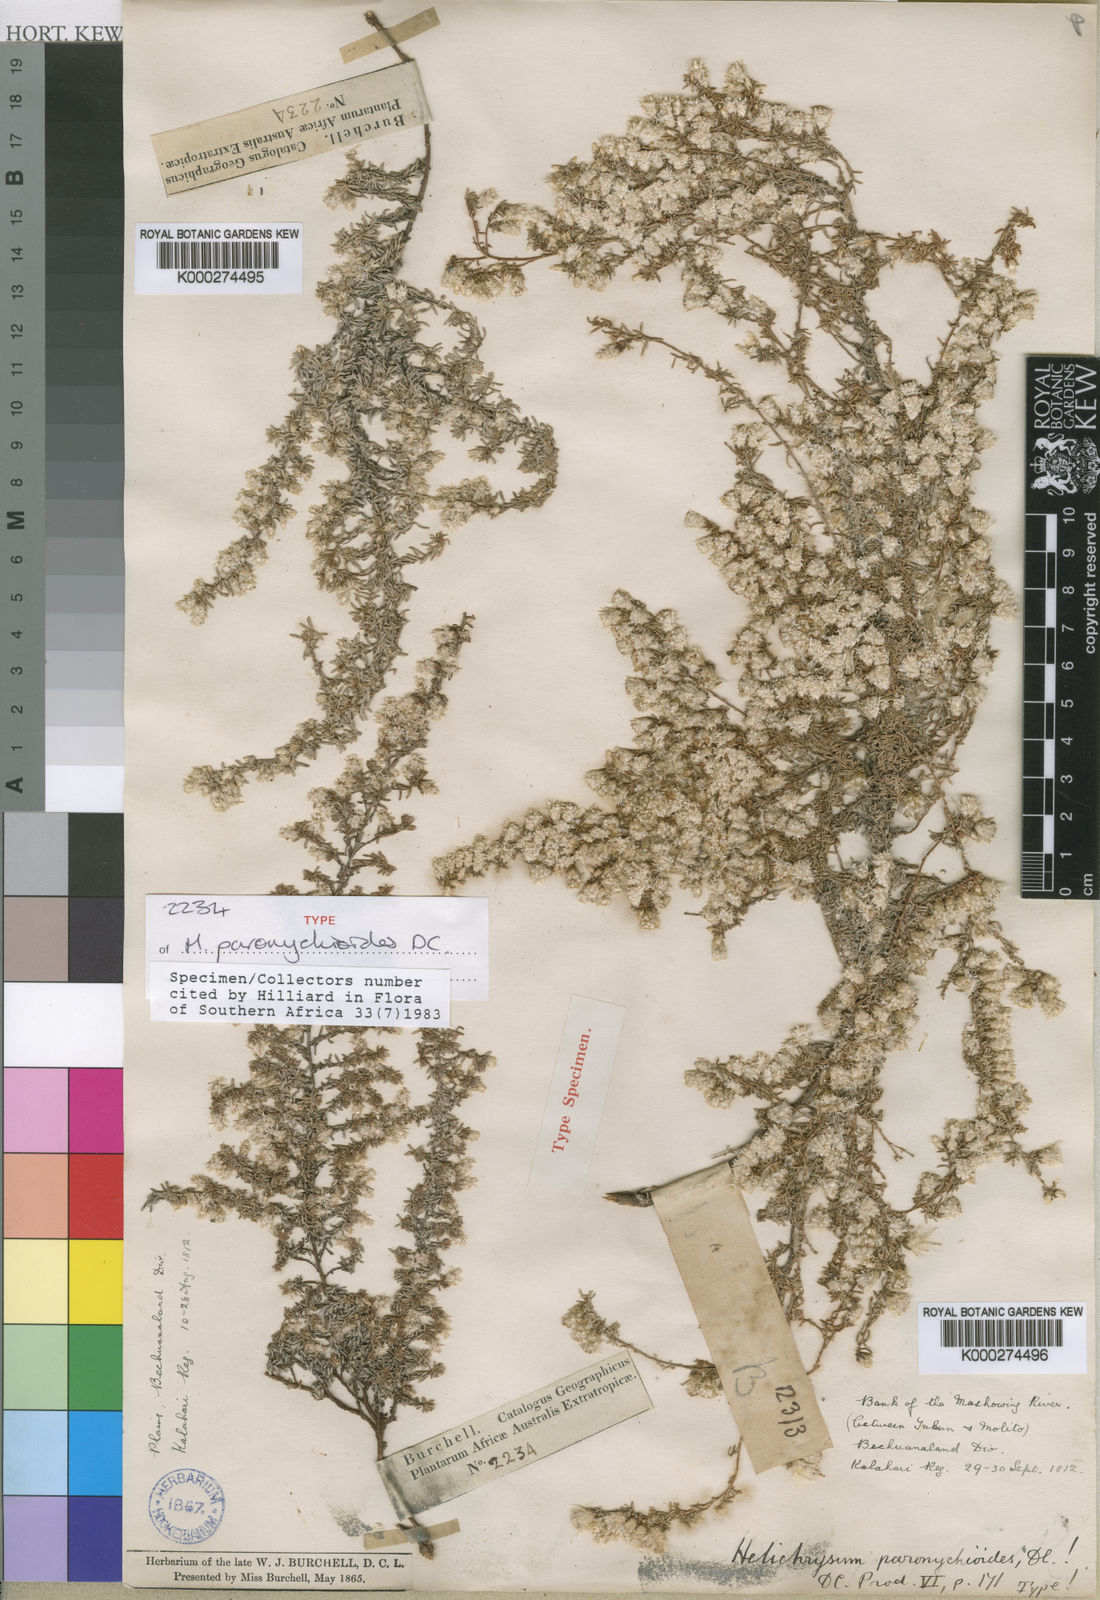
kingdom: Plantae
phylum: Tracheophyta
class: Magnoliopsida
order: Asterales
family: Asteraceae
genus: Helichrysum
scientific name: Helichrysum paronychioides
